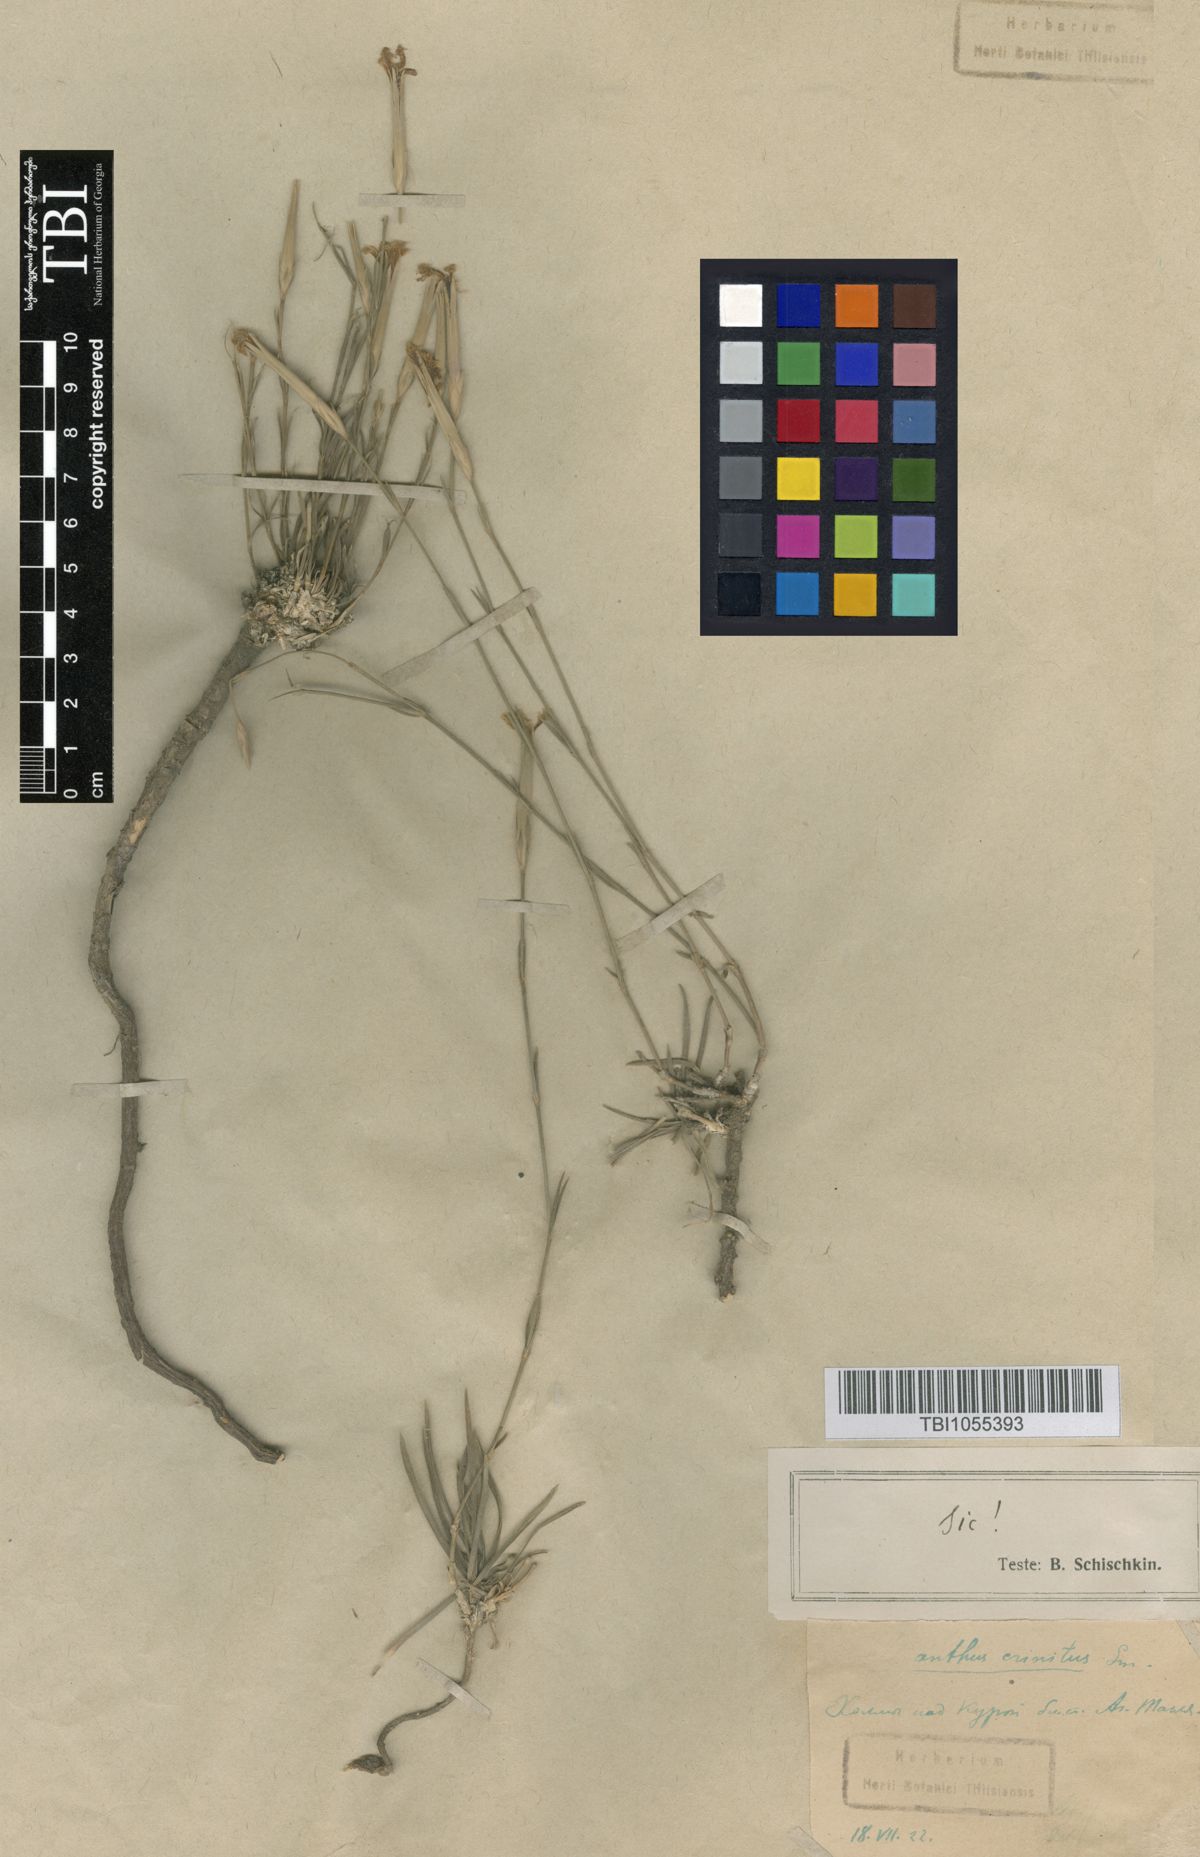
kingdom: Plantae
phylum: Tracheophyta
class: Magnoliopsida
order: Caryophyllales
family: Caryophyllaceae
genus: Dianthus
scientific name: Dianthus crinitus
